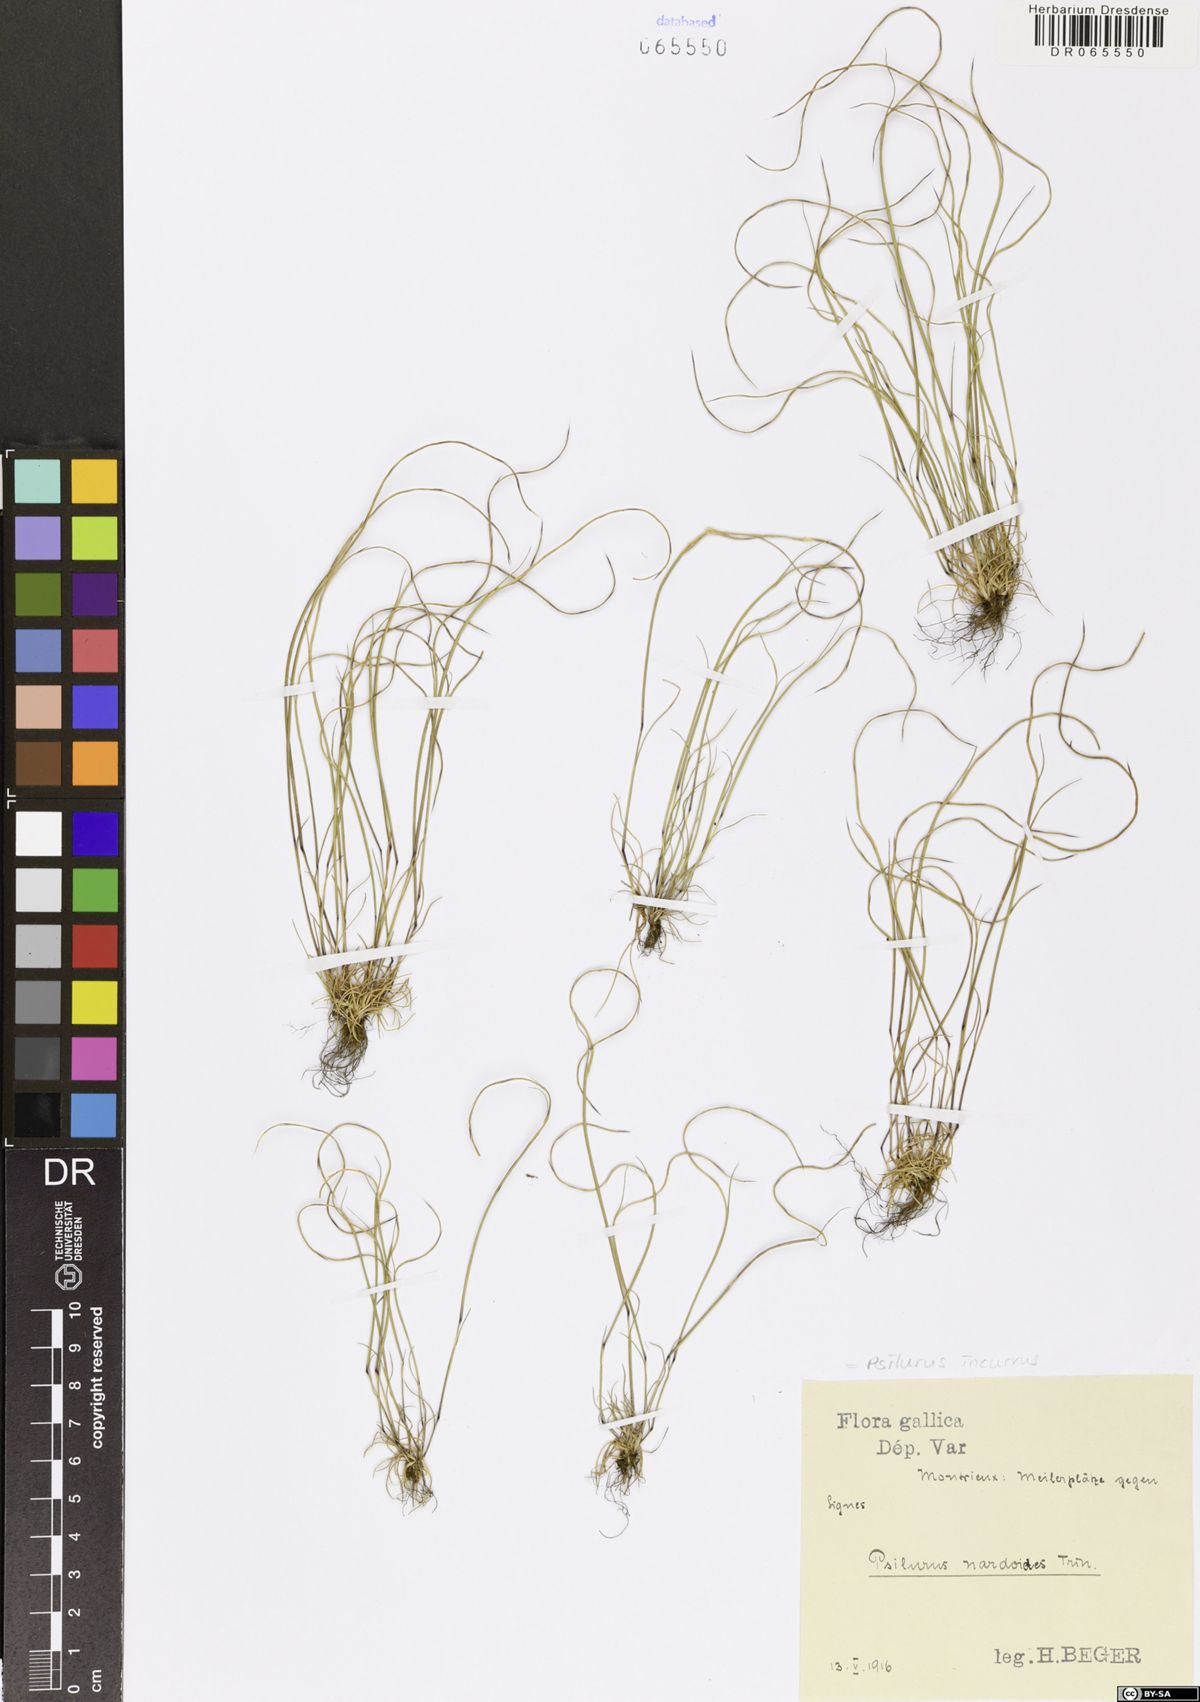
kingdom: Plantae
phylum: Tracheophyta
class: Liliopsida
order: Poales
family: Poaceae
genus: Festuca
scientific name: Festuca incurva
